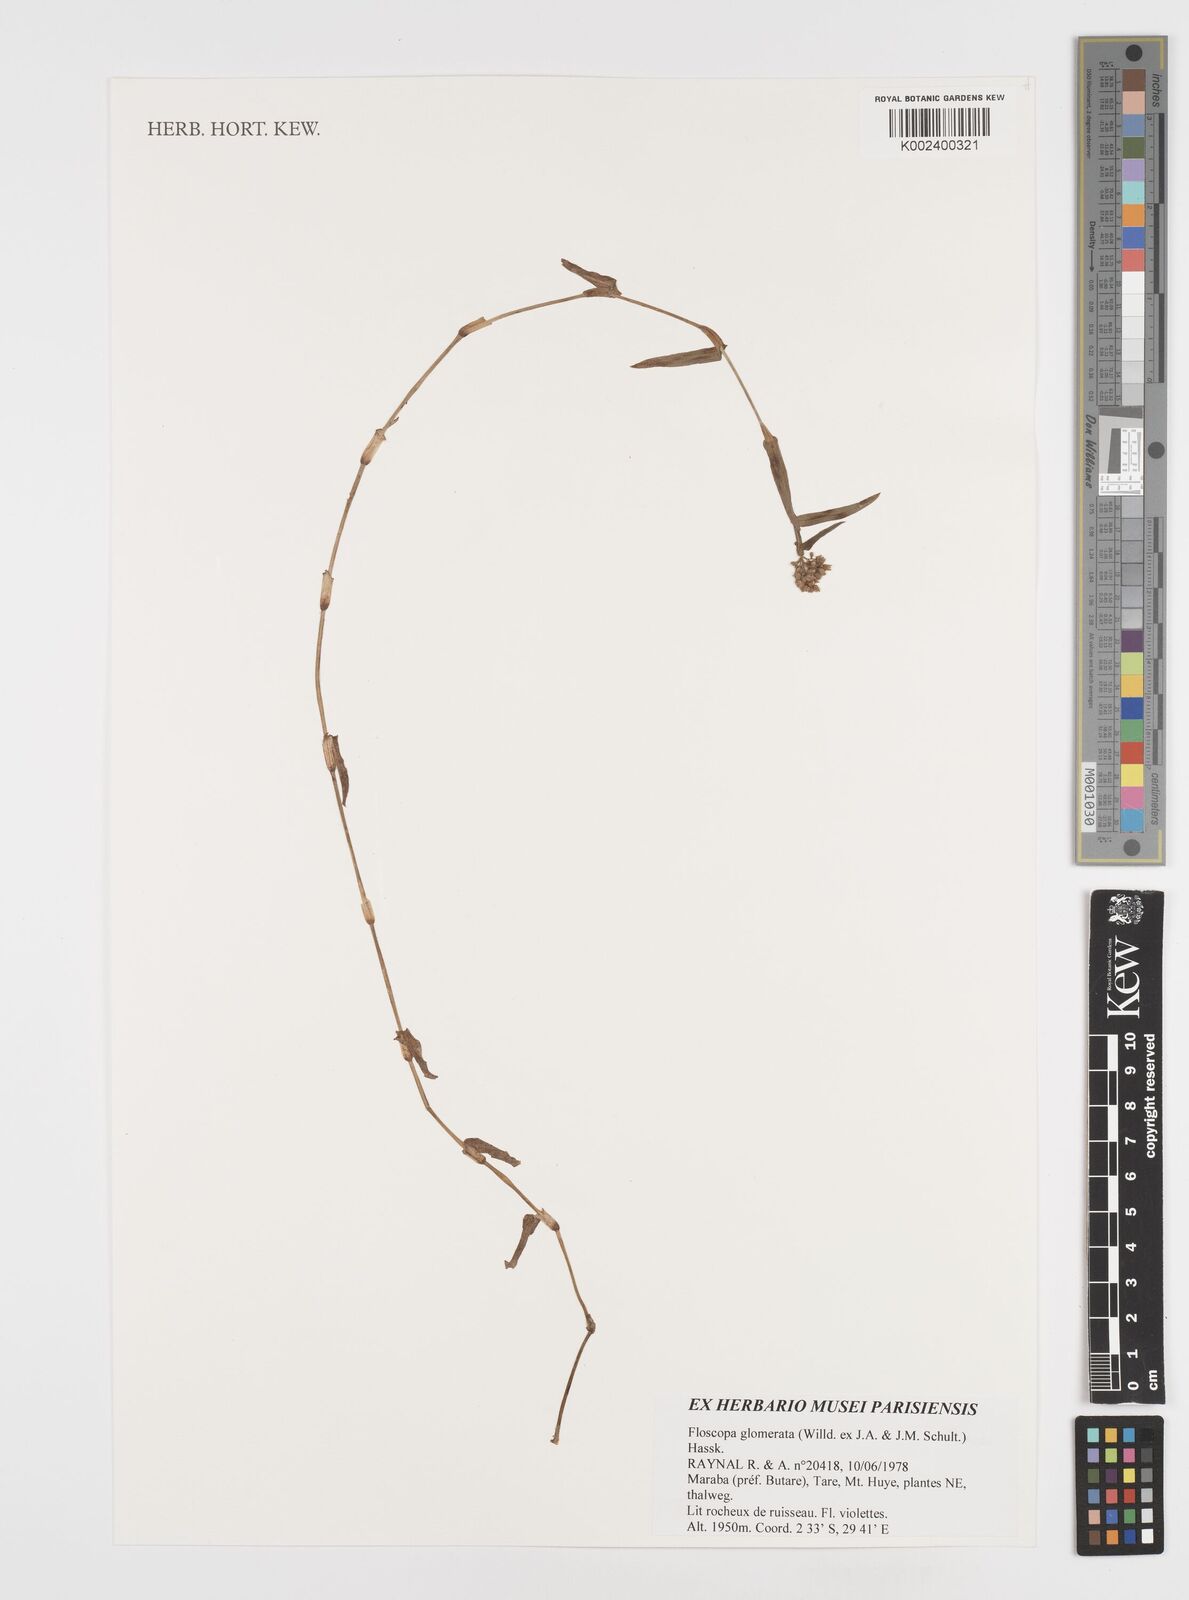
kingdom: Plantae
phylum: Tracheophyta
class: Liliopsida
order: Commelinales
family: Commelinaceae
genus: Floscopa
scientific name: Floscopa glomerata
